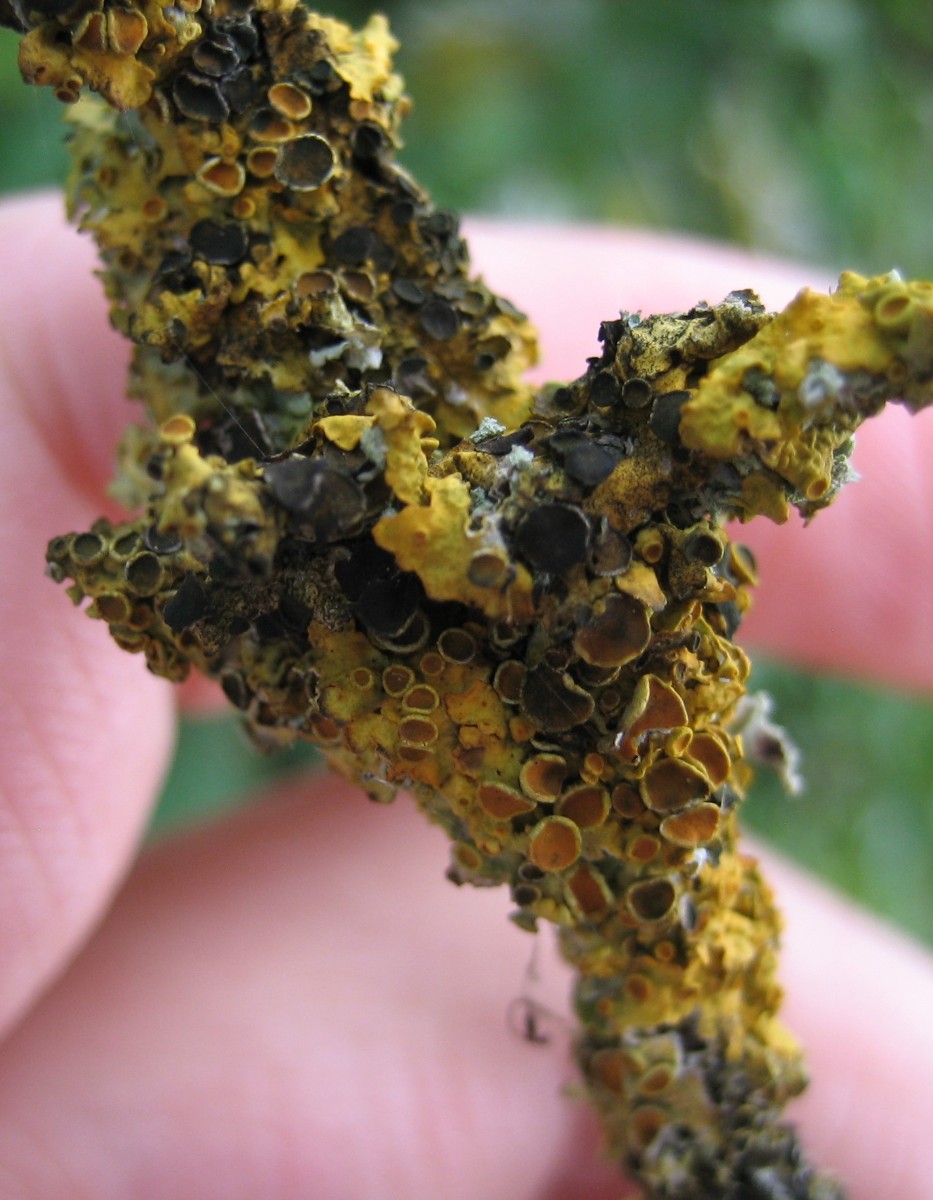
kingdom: Fungi
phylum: Ascomycota
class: Dothideomycetes
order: Mycosphaerellales
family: Teratosphaeriaceae
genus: Xanthoriicola
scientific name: Xanthoriicola physciae
